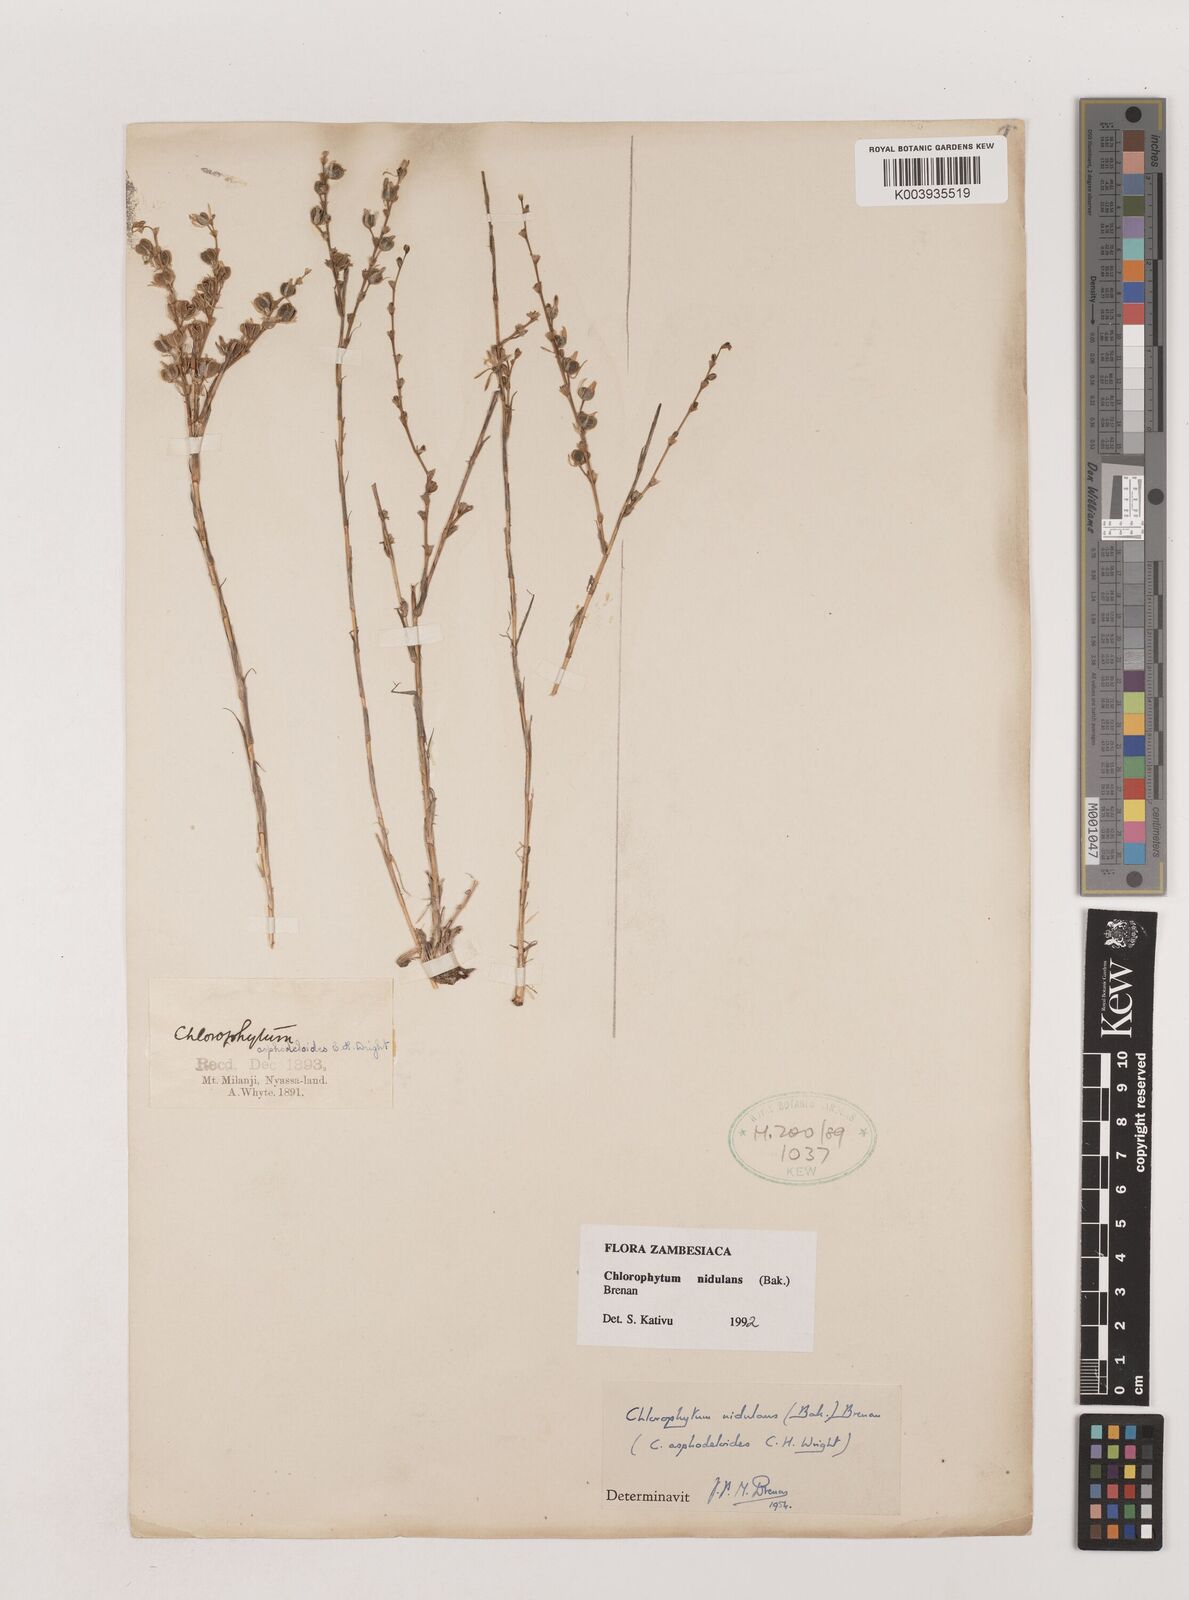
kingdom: Plantae
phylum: Tracheophyta
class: Liliopsida
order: Asparagales
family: Asparagaceae
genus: Chlorophytum
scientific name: Chlorophytum nidulans
